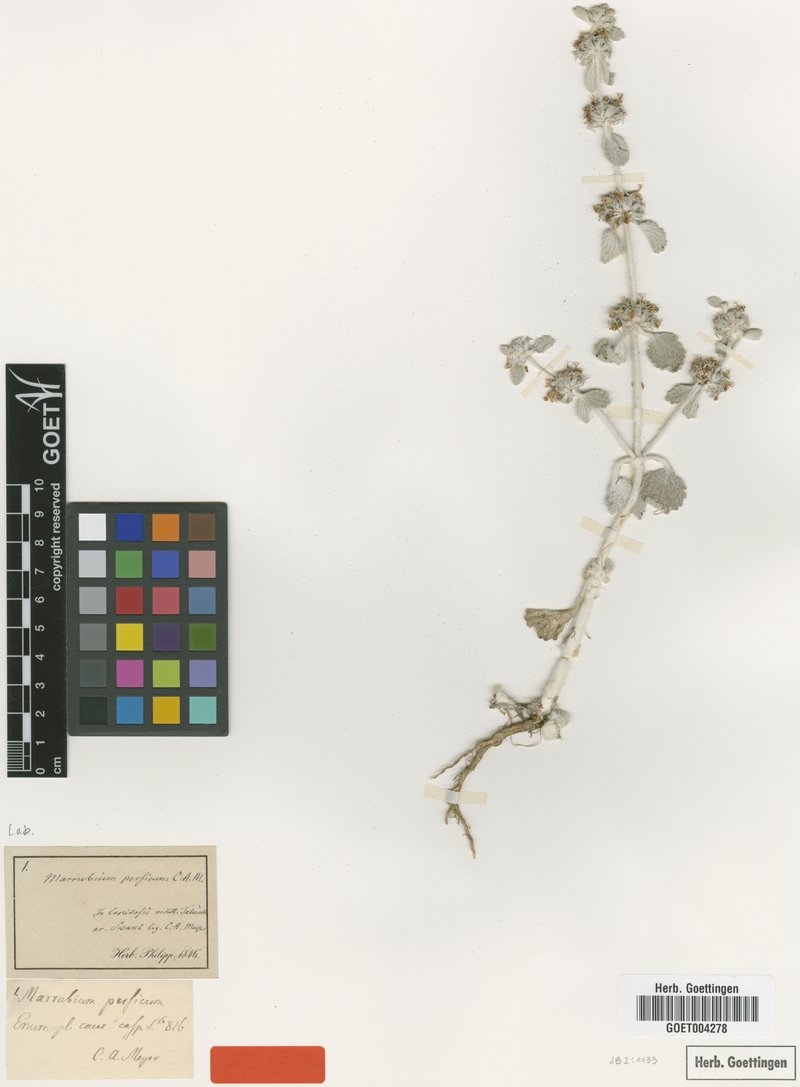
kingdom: Plantae
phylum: Tracheophyta
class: Magnoliopsida
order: Lamiales
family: Lamiaceae
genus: Marrubium
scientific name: Marrubium persicum
